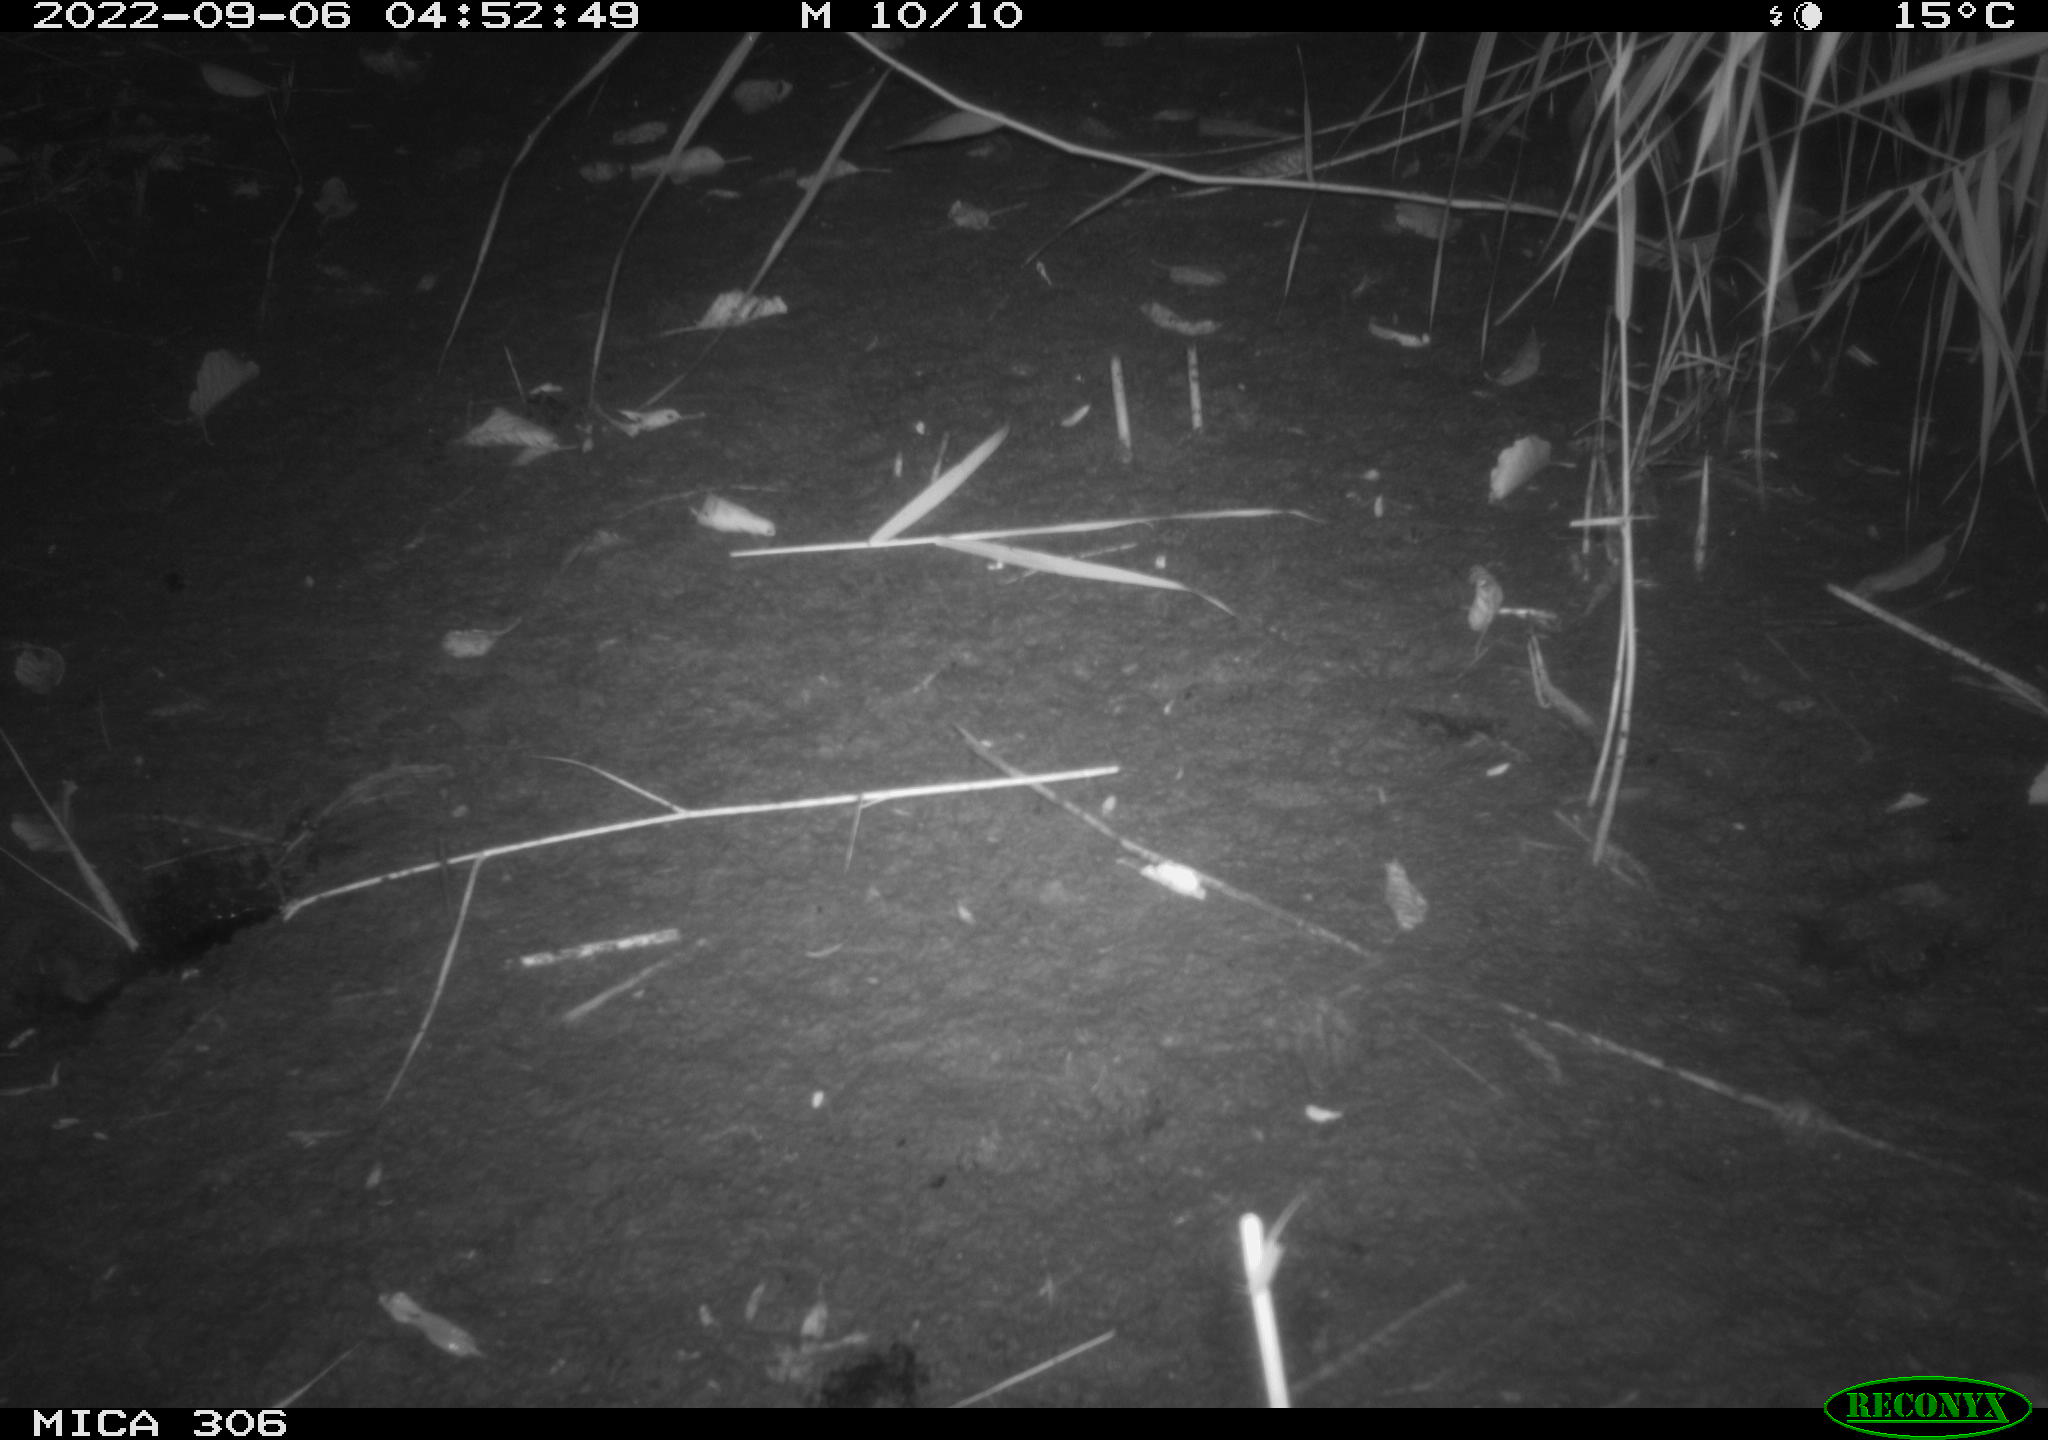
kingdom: Animalia
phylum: Chordata
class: Mammalia
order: Rodentia
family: Muridae
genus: Rattus
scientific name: Rattus norvegicus
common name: Brown rat
